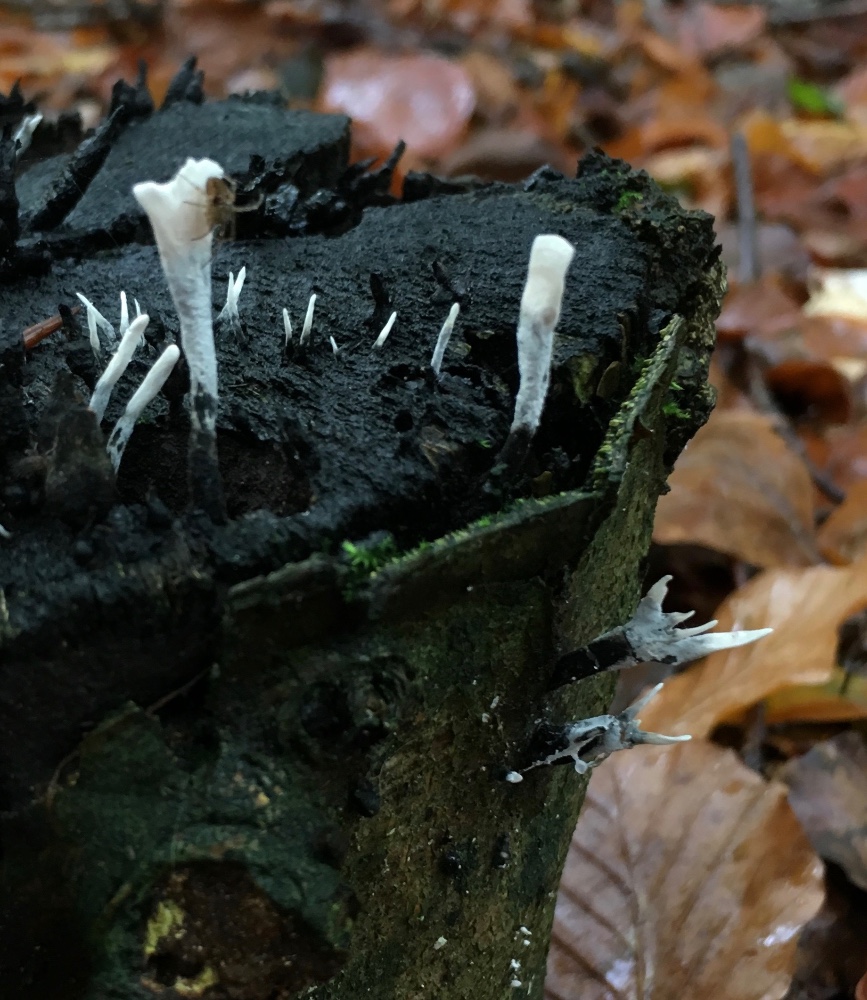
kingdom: Fungi
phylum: Ascomycota
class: Sordariomycetes
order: Xylariales
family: Xylariaceae
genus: Xylaria
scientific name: Xylaria hypoxylon
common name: grenet stødsvamp
